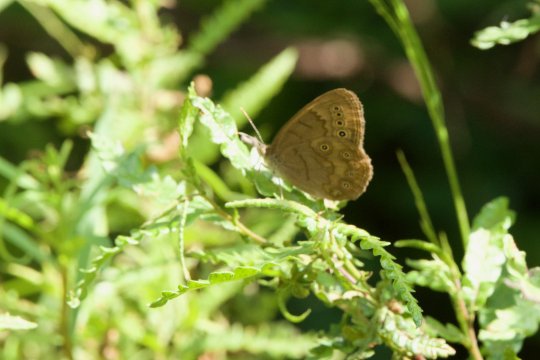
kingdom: Animalia
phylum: Arthropoda
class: Insecta
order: Lepidoptera
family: Nymphalidae
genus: Lethe
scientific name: Lethe eurydice
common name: Eyed Brown
